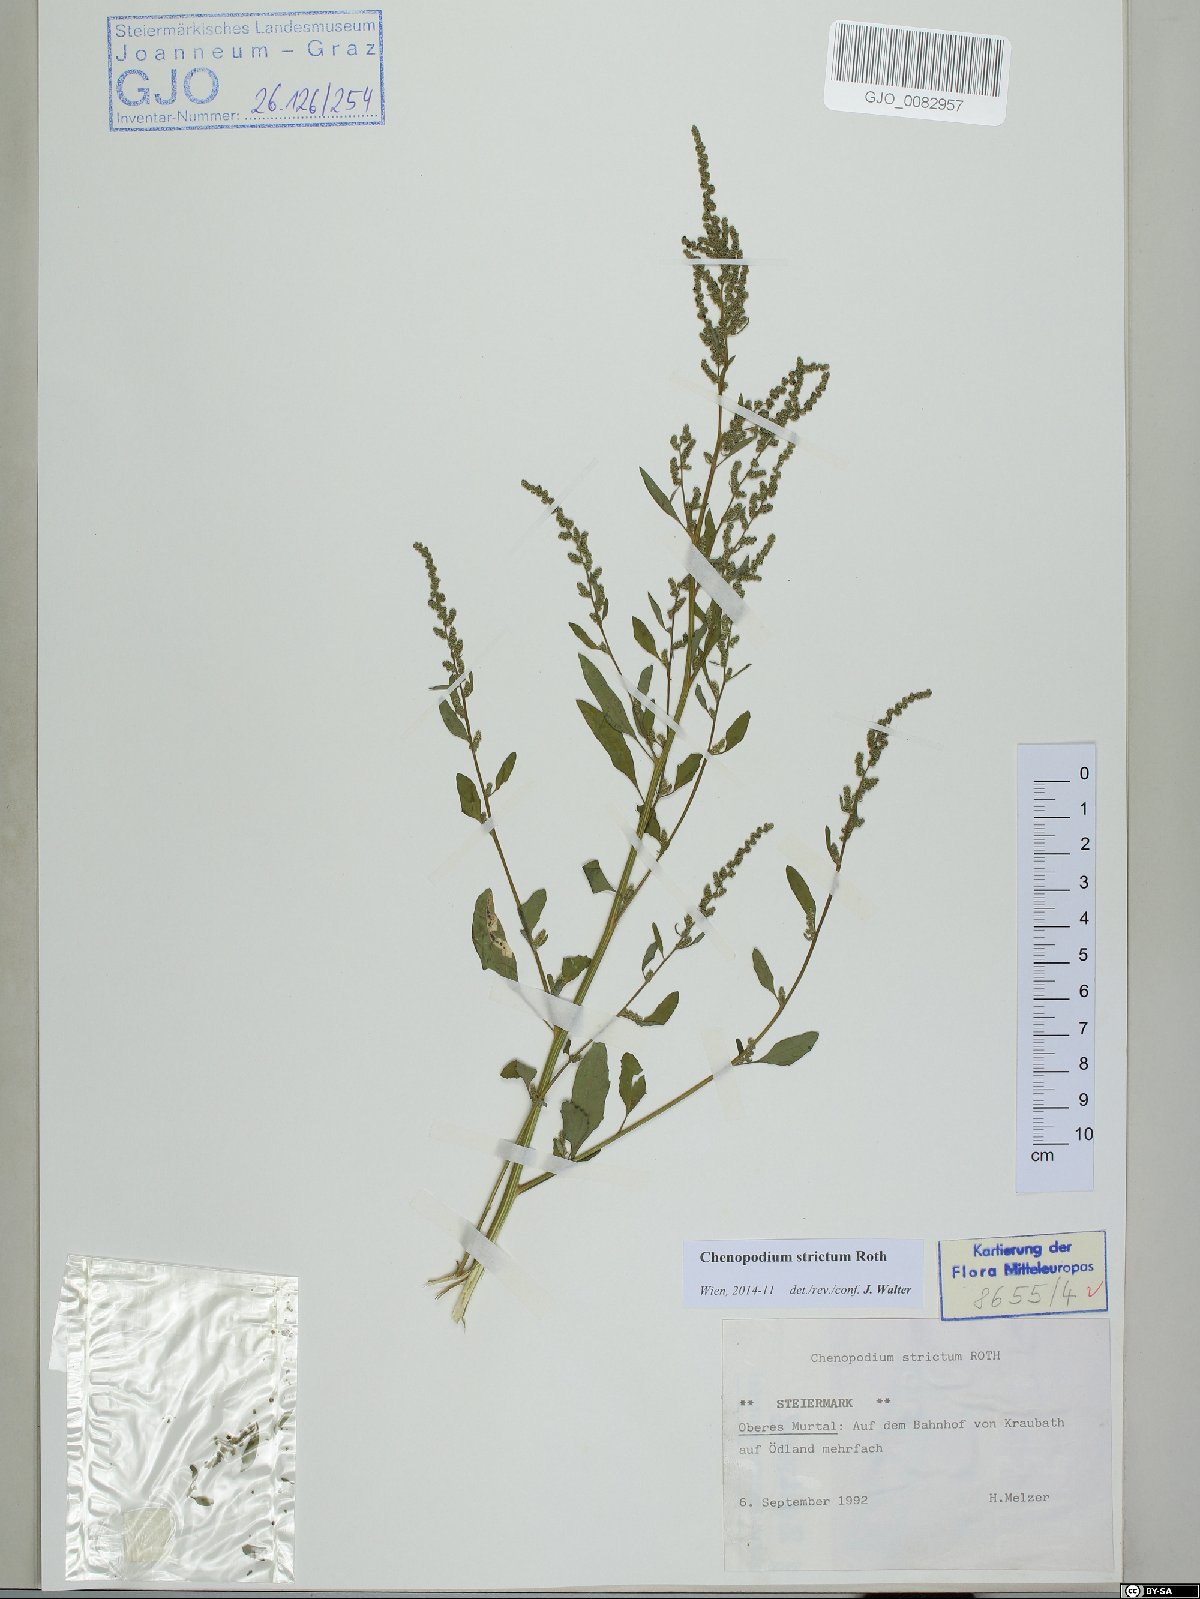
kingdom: Plantae
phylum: Tracheophyta
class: Magnoliopsida
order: Caryophyllales
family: Amaranthaceae
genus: Chenopodium
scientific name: Chenopodium album
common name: Fat-hen
